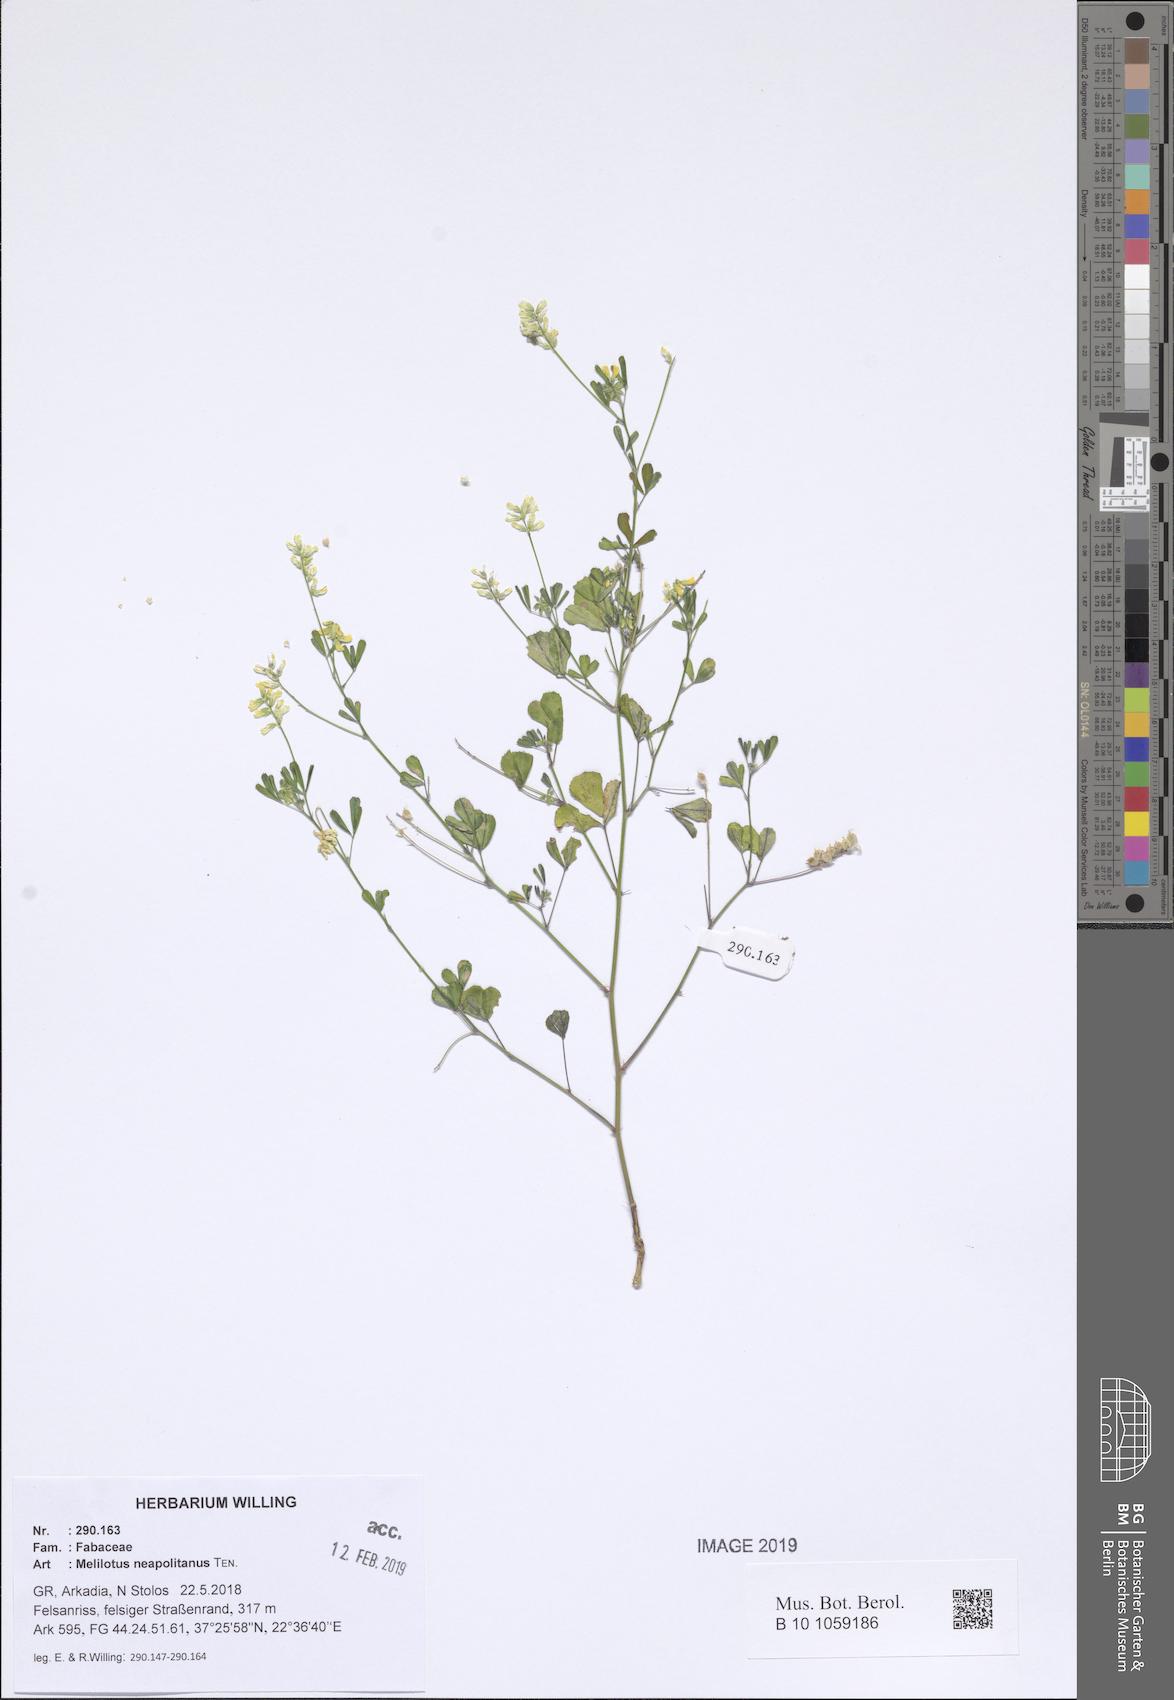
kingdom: Plantae
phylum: Tracheophyta
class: Magnoliopsida
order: Fabales
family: Fabaceae
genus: Melilotus
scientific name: Melilotus neapolitanus
